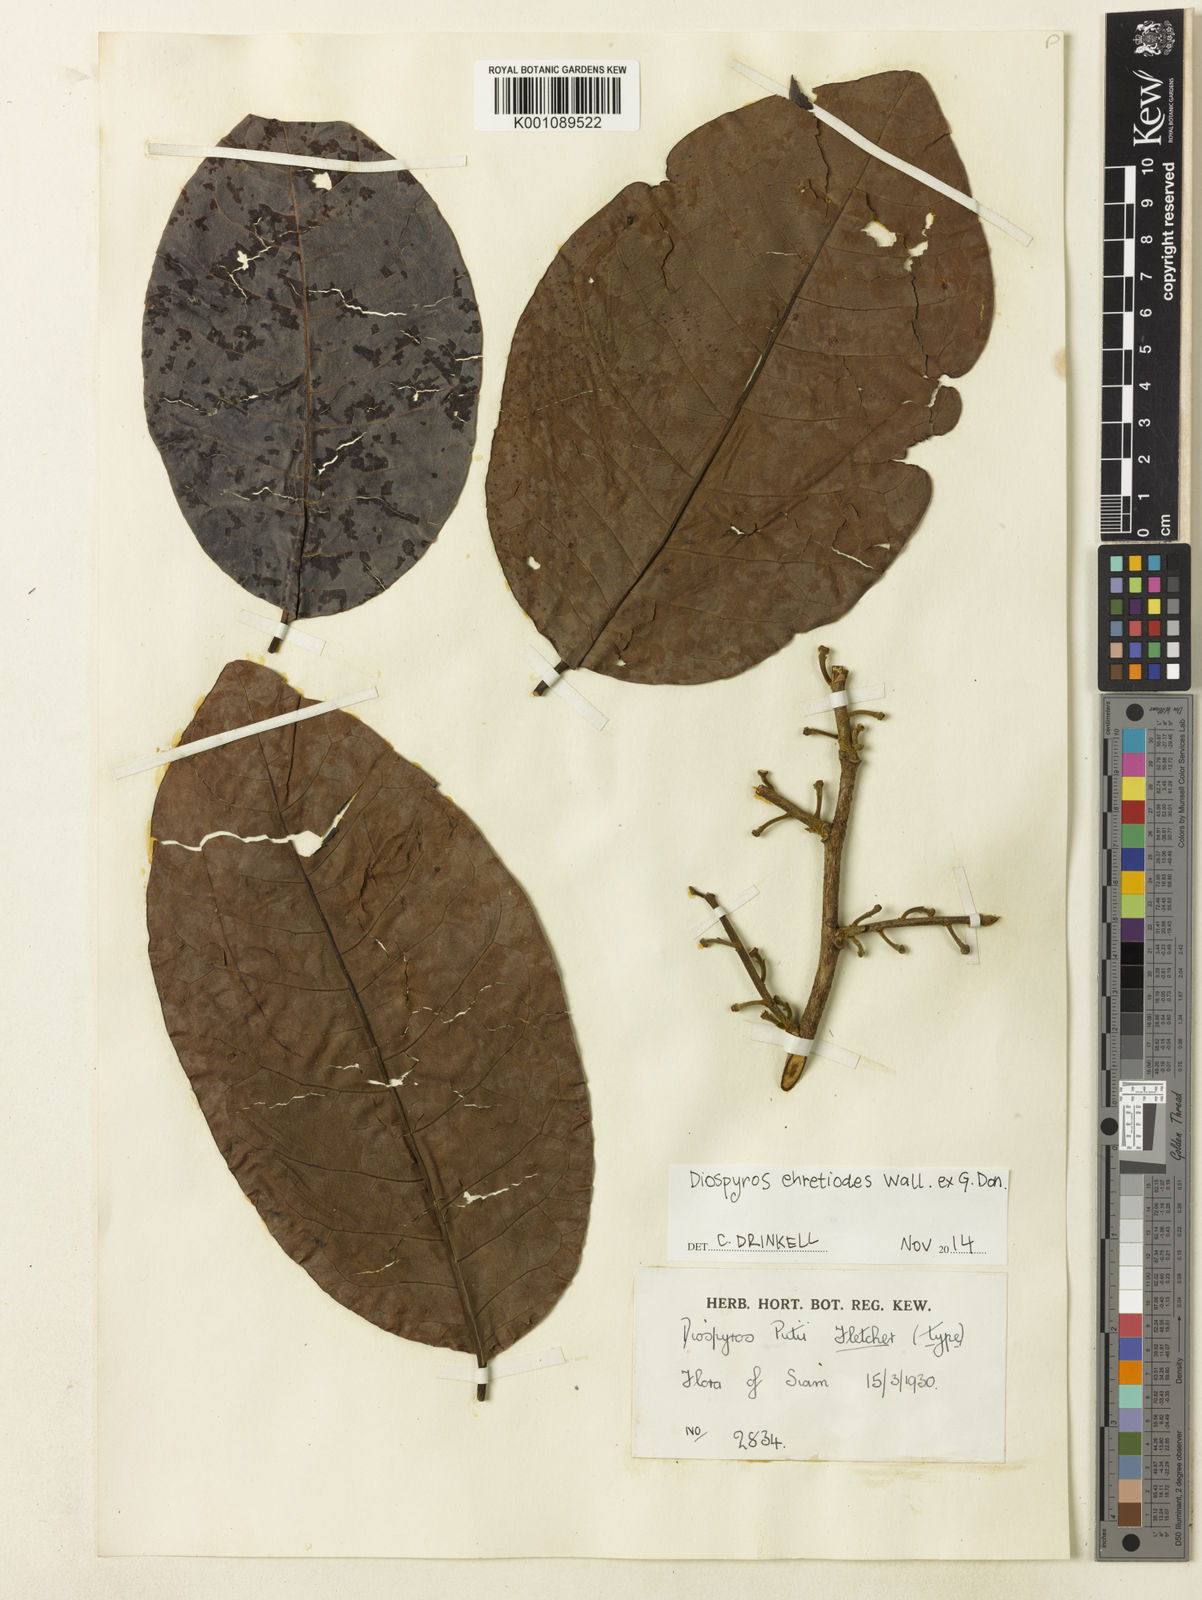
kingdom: Plantae
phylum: Tracheophyta
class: Magnoliopsida
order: Ericales
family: Ebenaceae
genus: Diospyros
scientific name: Diospyros
